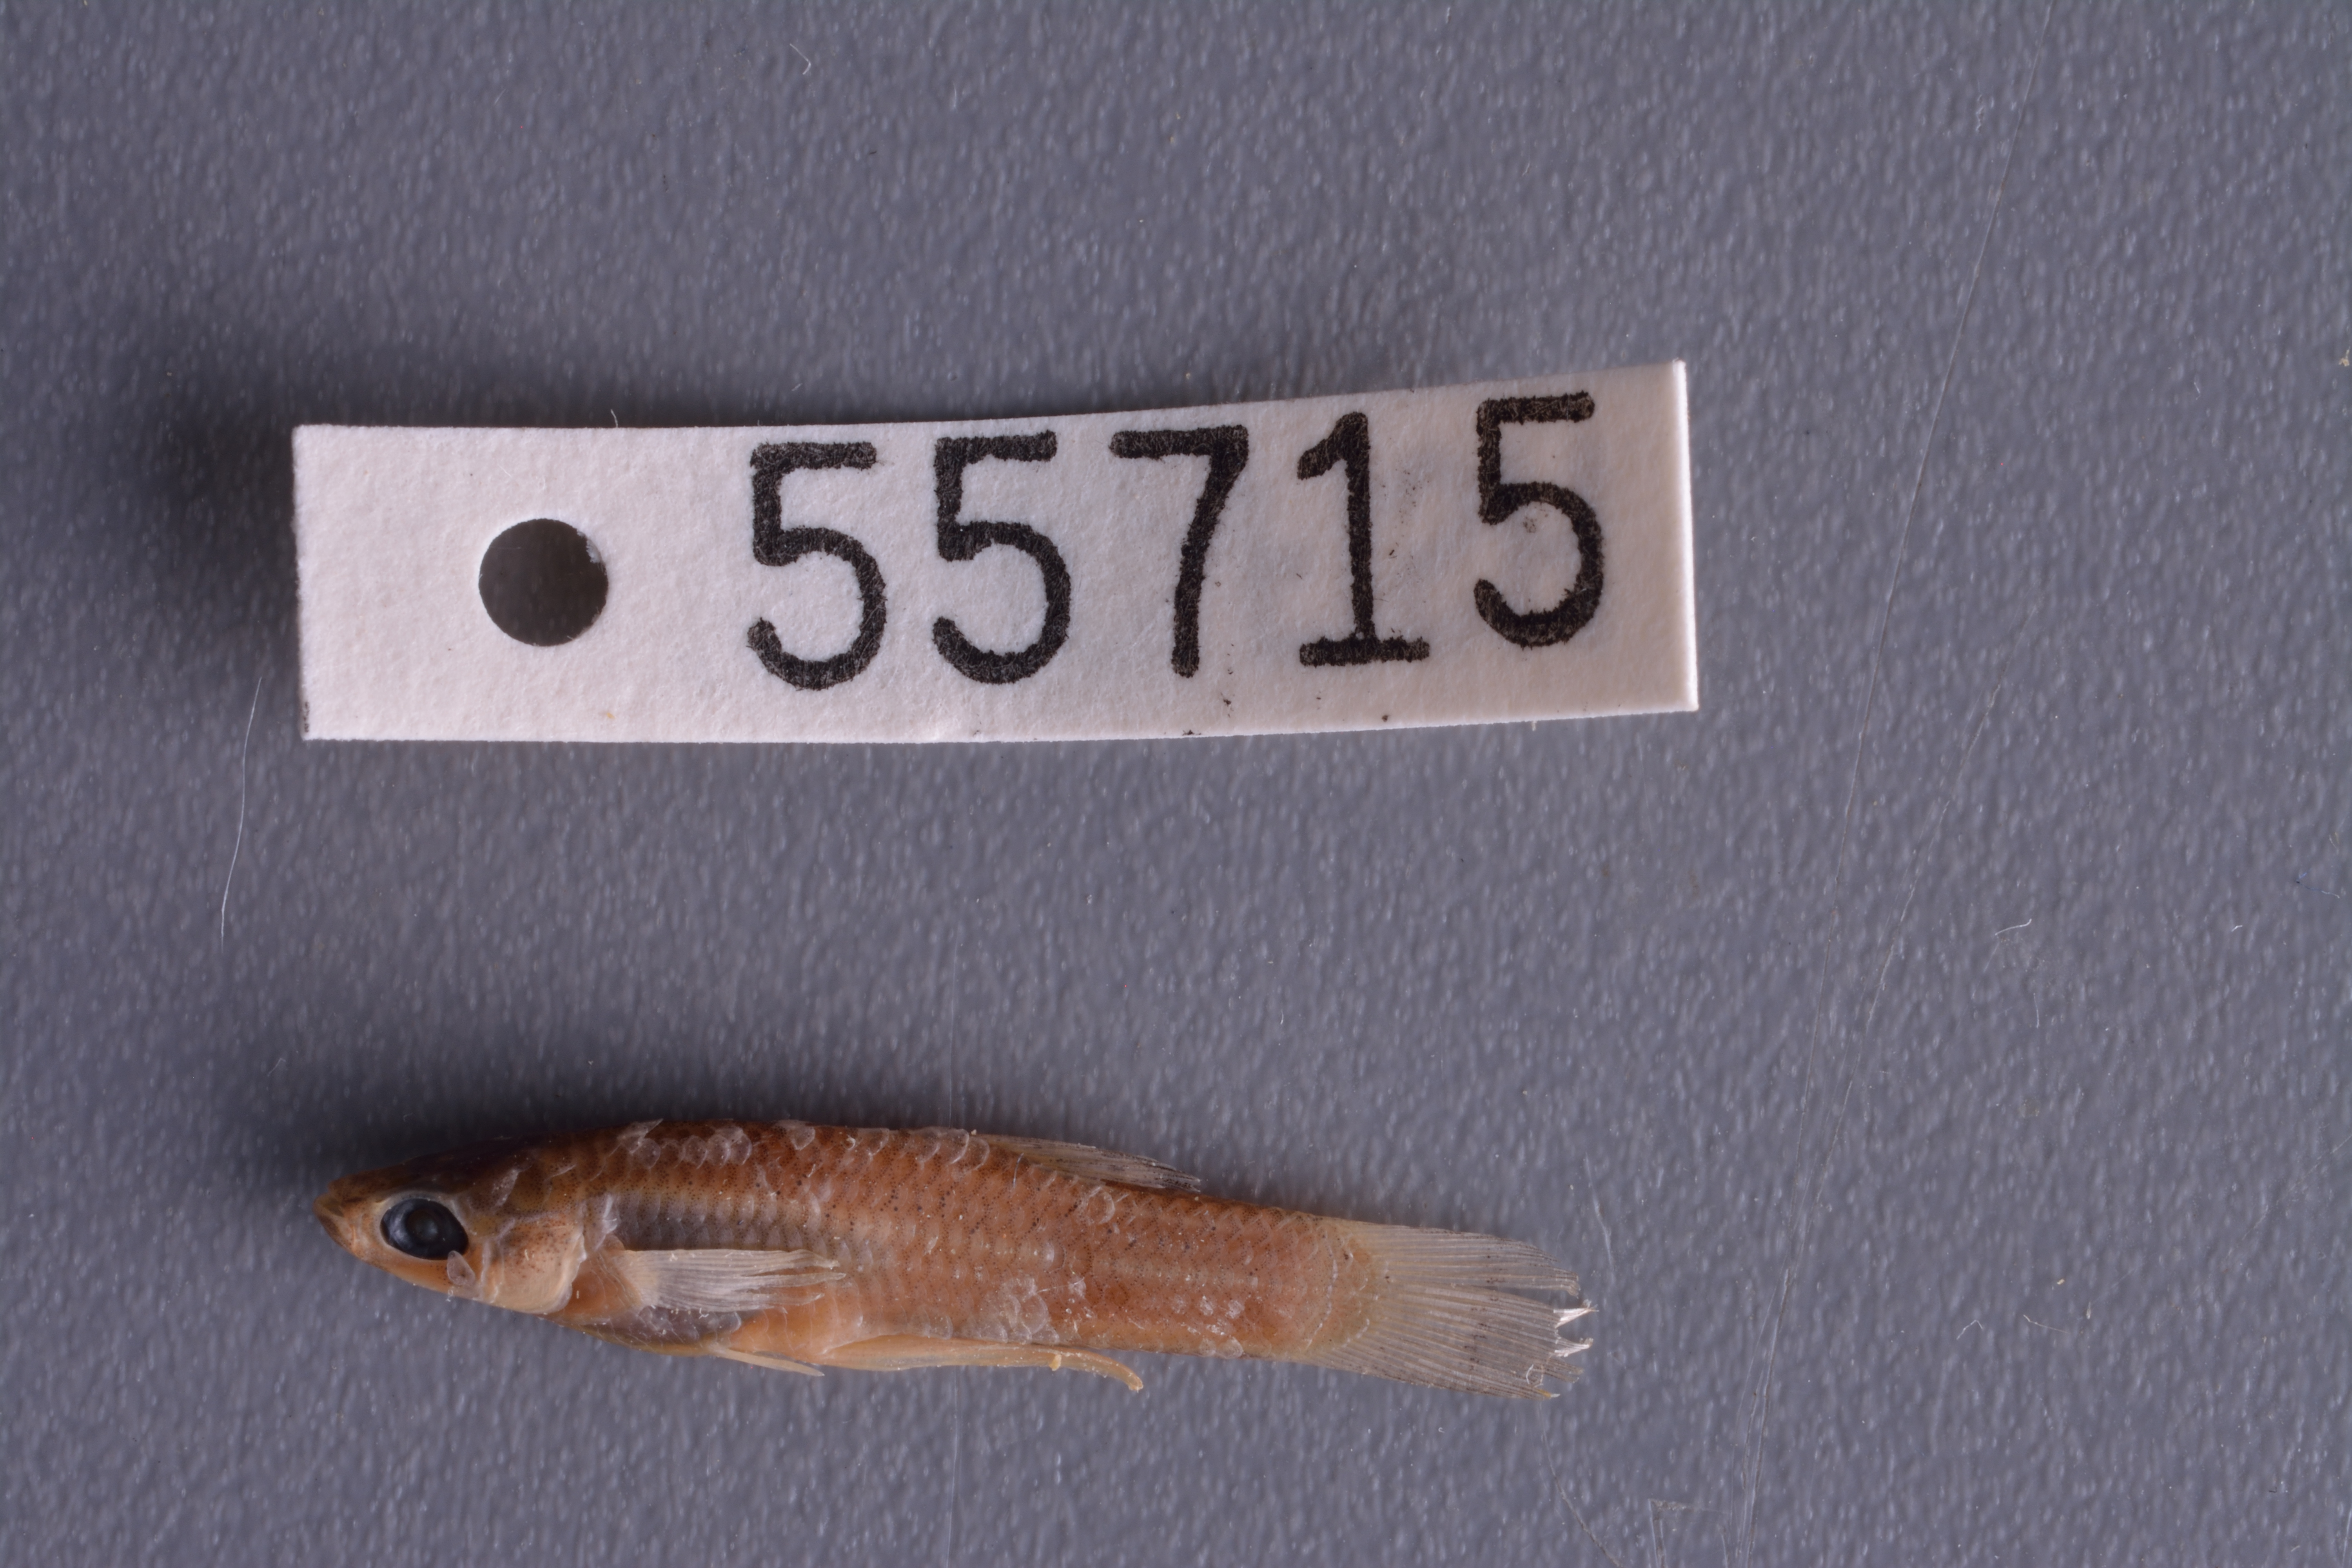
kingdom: Animalia
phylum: Chordata
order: Cyprinodontiformes
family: Poeciliidae
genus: Gambusia
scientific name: Gambusia affinis
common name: Mosquitofish
